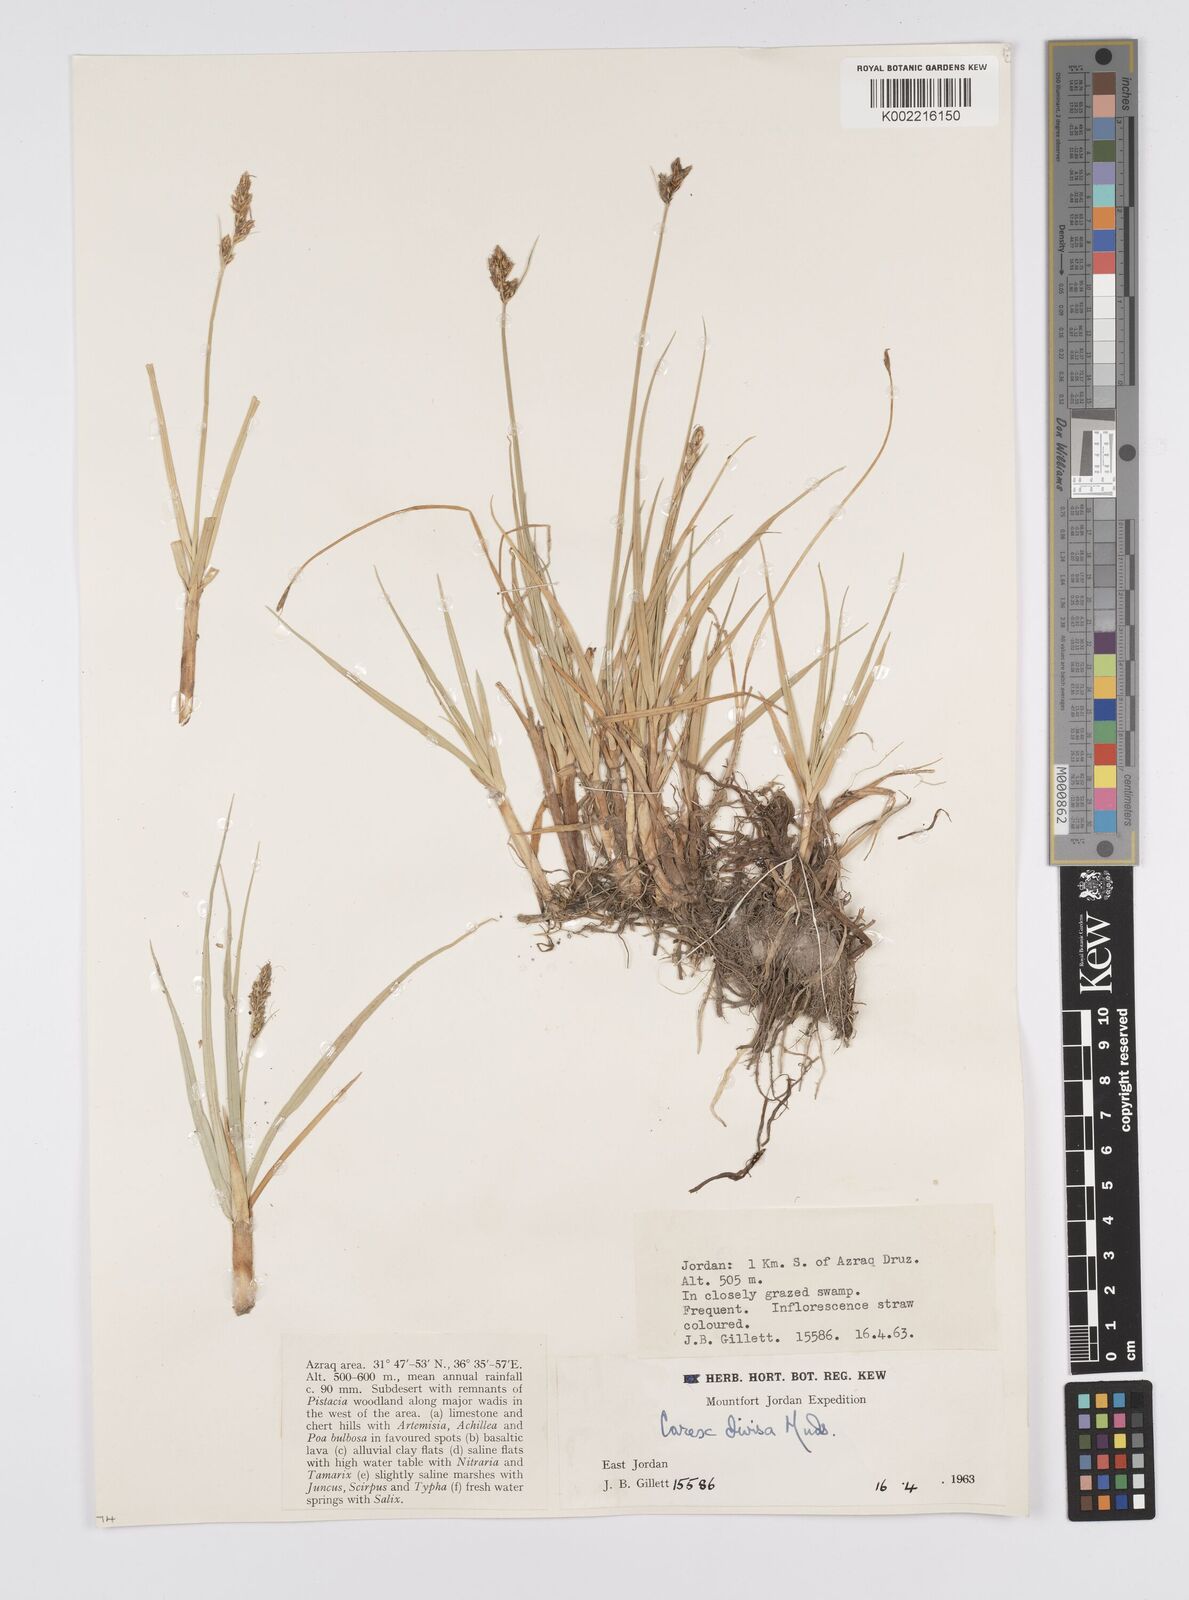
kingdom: Plantae
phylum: Tracheophyta
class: Liliopsida
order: Poales
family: Cyperaceae
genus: Carex
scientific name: Carex divisa
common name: Divided sedge
